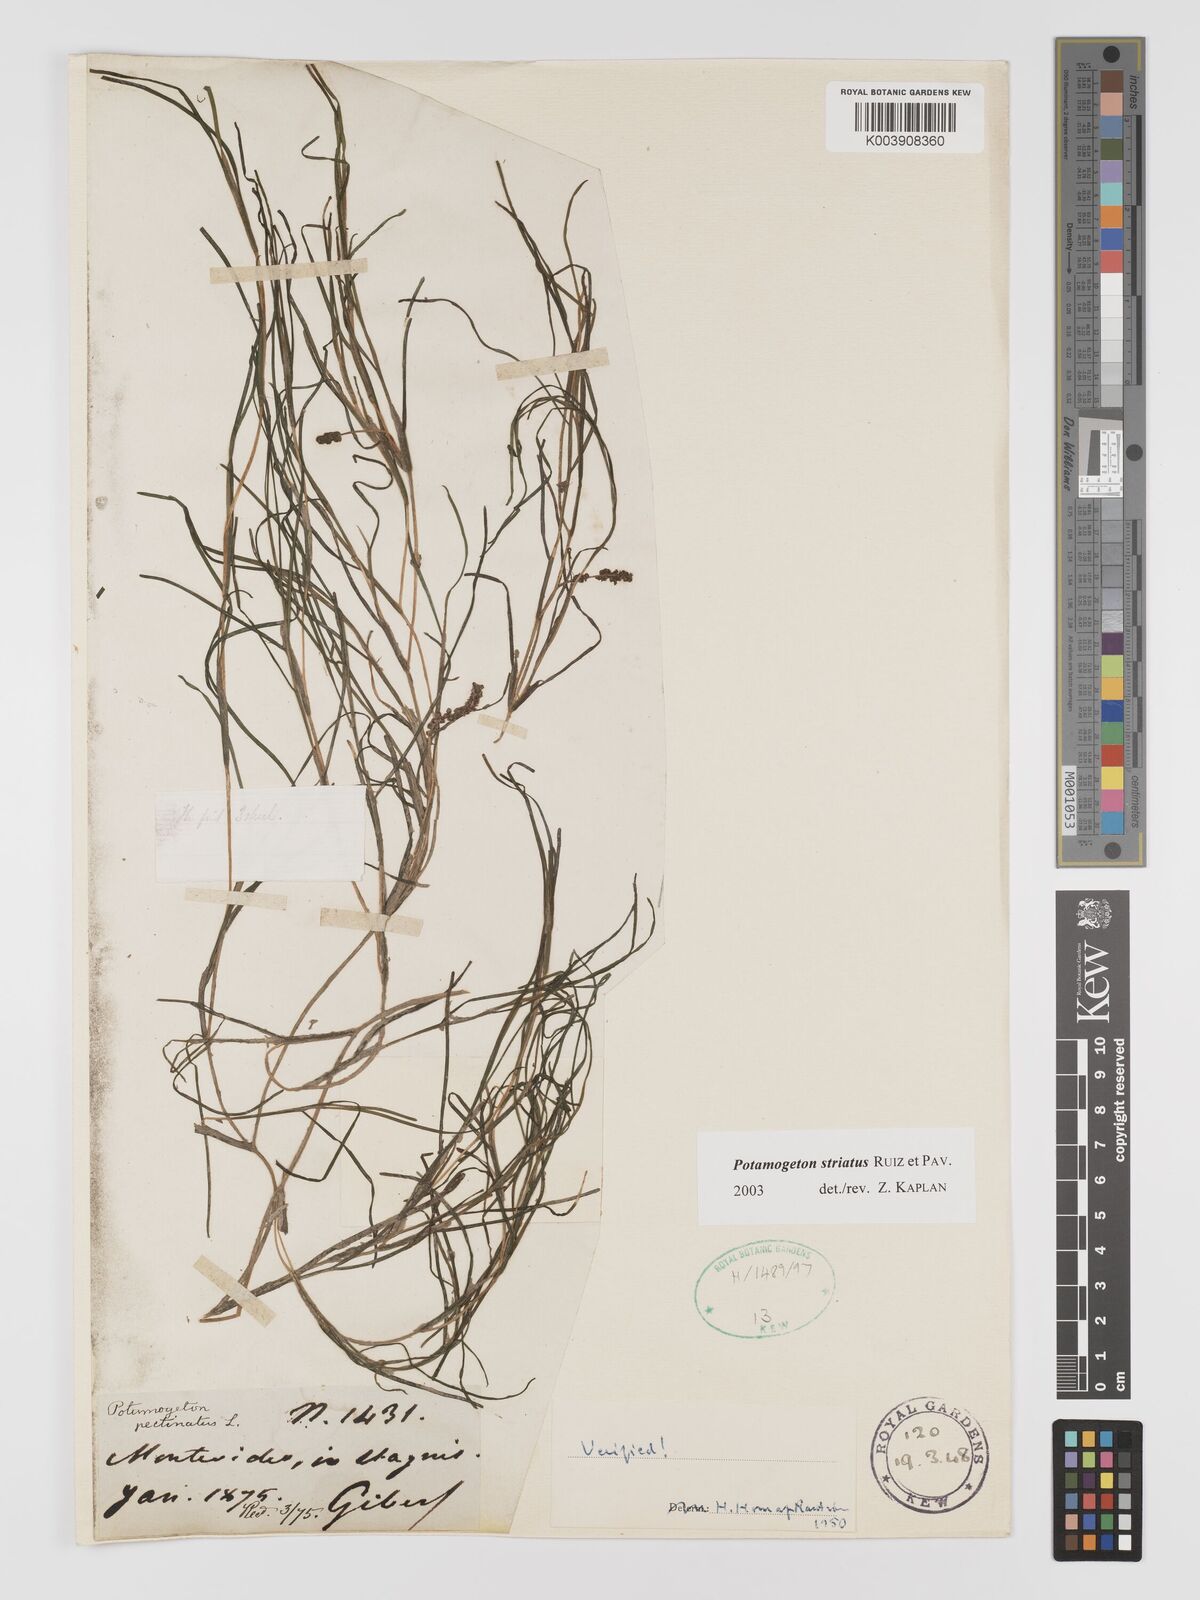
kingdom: Plantae
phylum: Tracheophyta
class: Liliopsida
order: Alismatales
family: Potamogetonaceae
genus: Stuckenia
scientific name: Stuckenia striata
